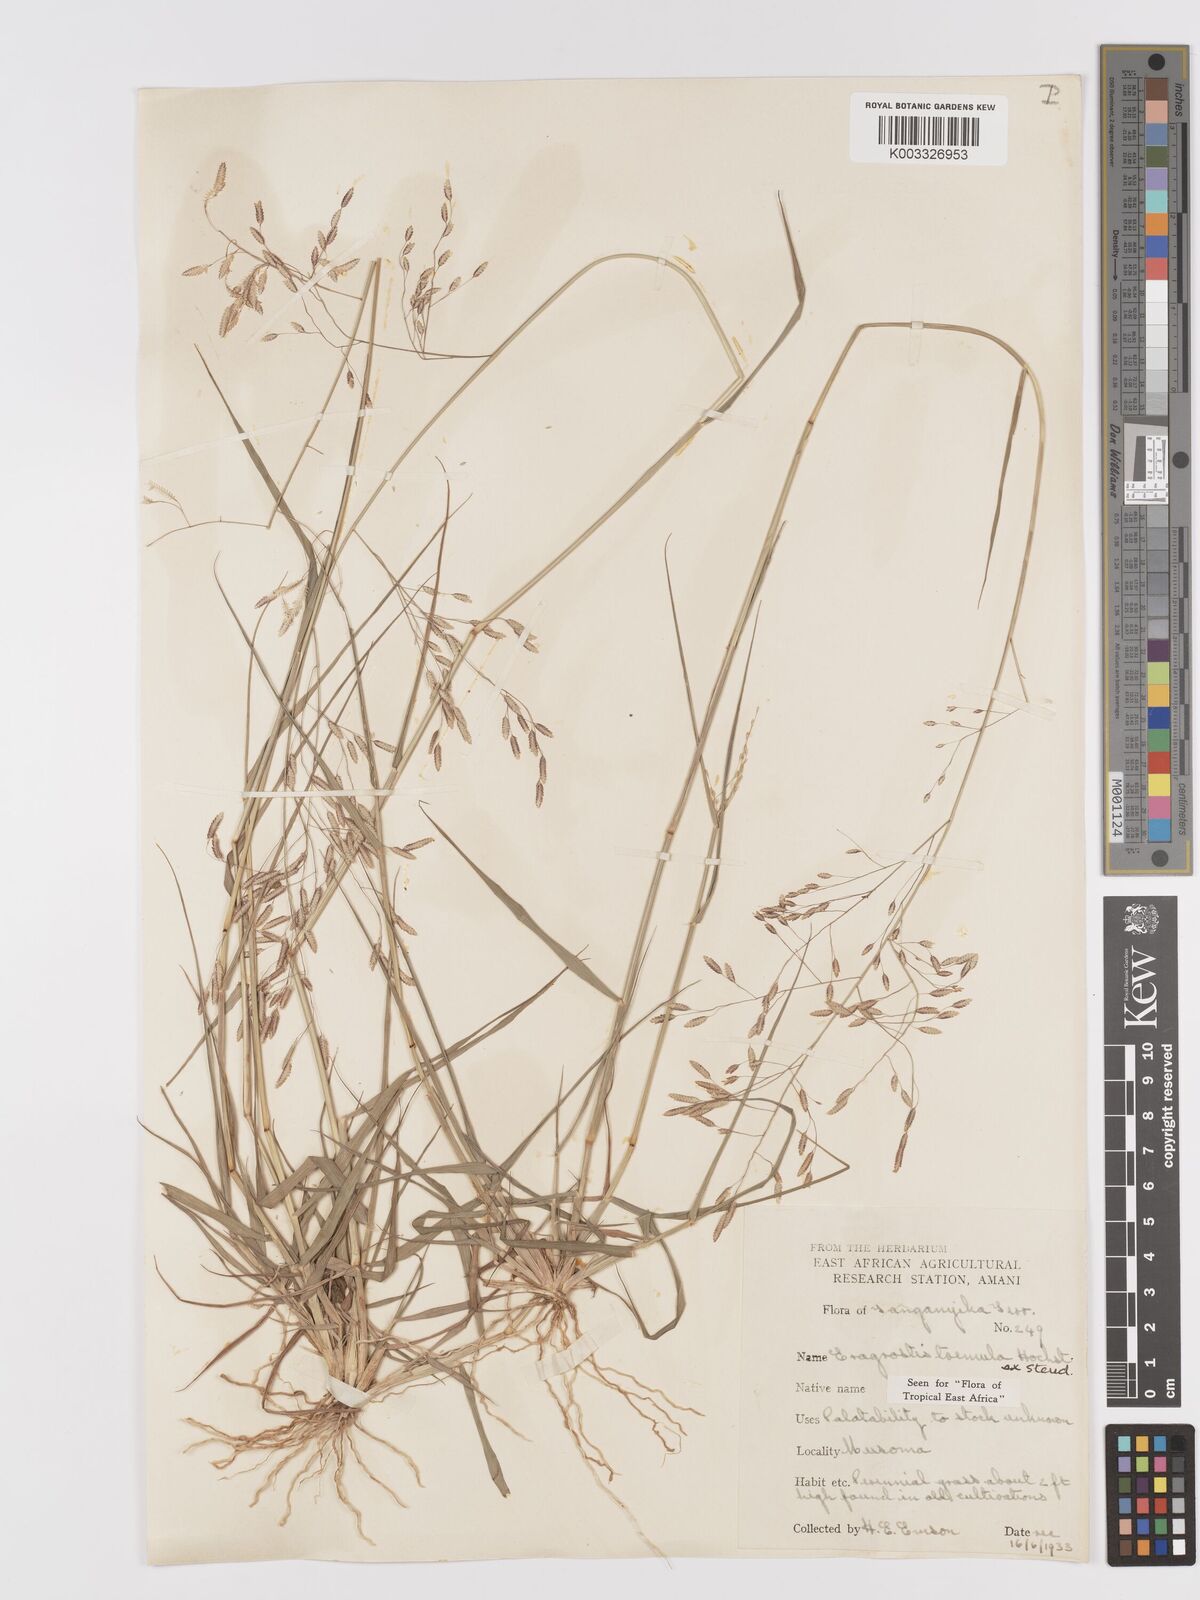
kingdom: Plantae
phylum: Tracheophyta
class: Liliopsida
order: Poales
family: Poaceae
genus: Eragrostis
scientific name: Eragrostis tremula
